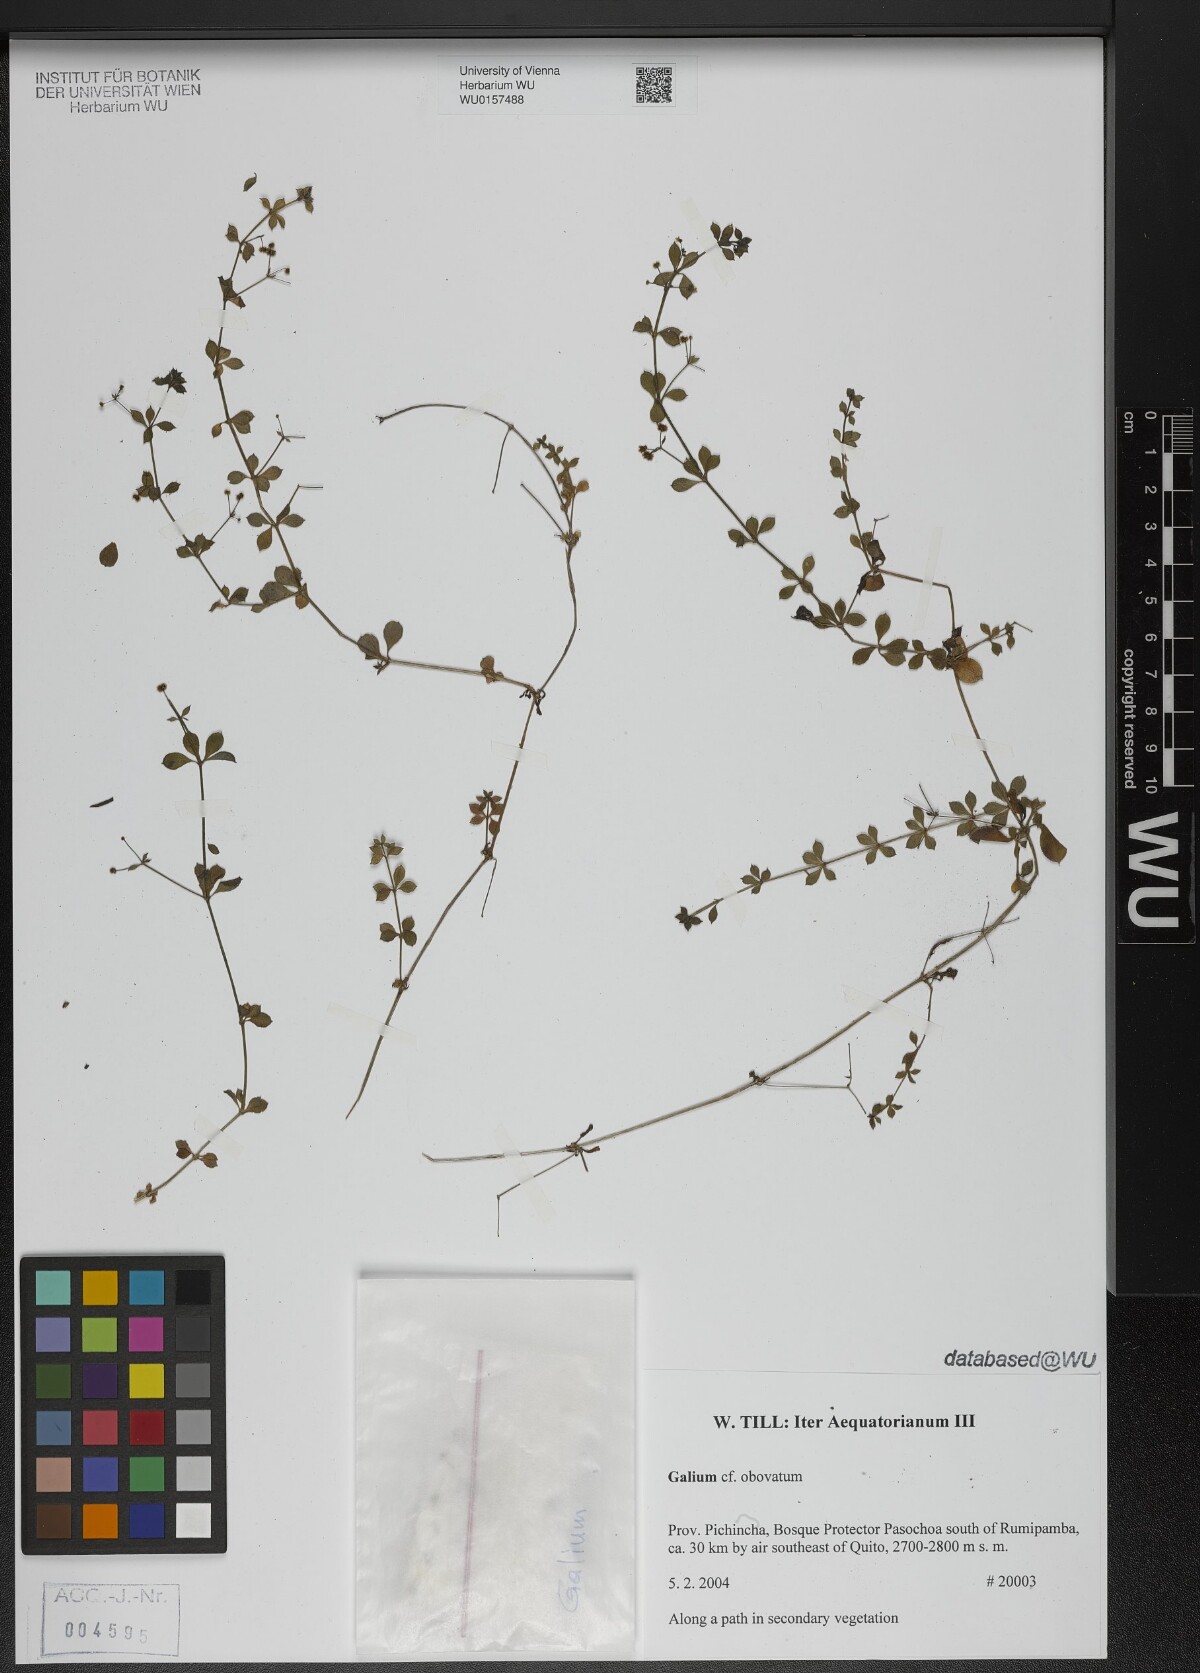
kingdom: Plantae
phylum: Tracheophyta
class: Magnoliopsida
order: Gentianales
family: Rubiaceae
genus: Galium
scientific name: Galium obovatum
